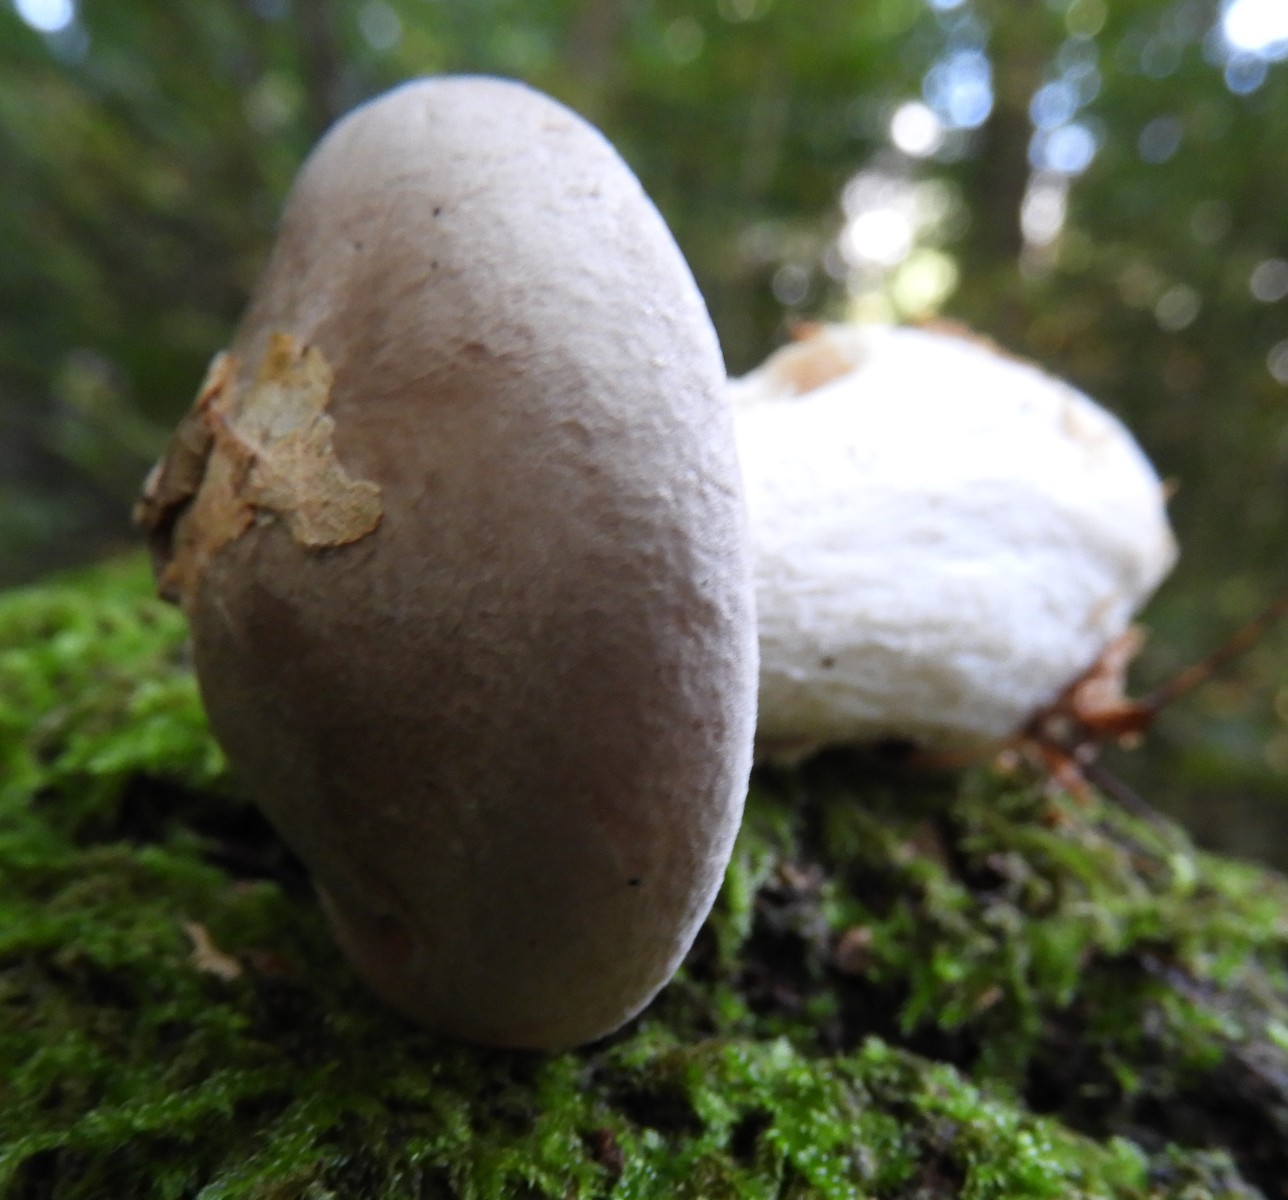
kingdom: Fungi
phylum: Basidiomycota
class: Agaricomycetes
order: Agaricales
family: Tricholomataceae
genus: Clitocybe
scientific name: Clitocybe nebularis
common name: tåge-tragthat
